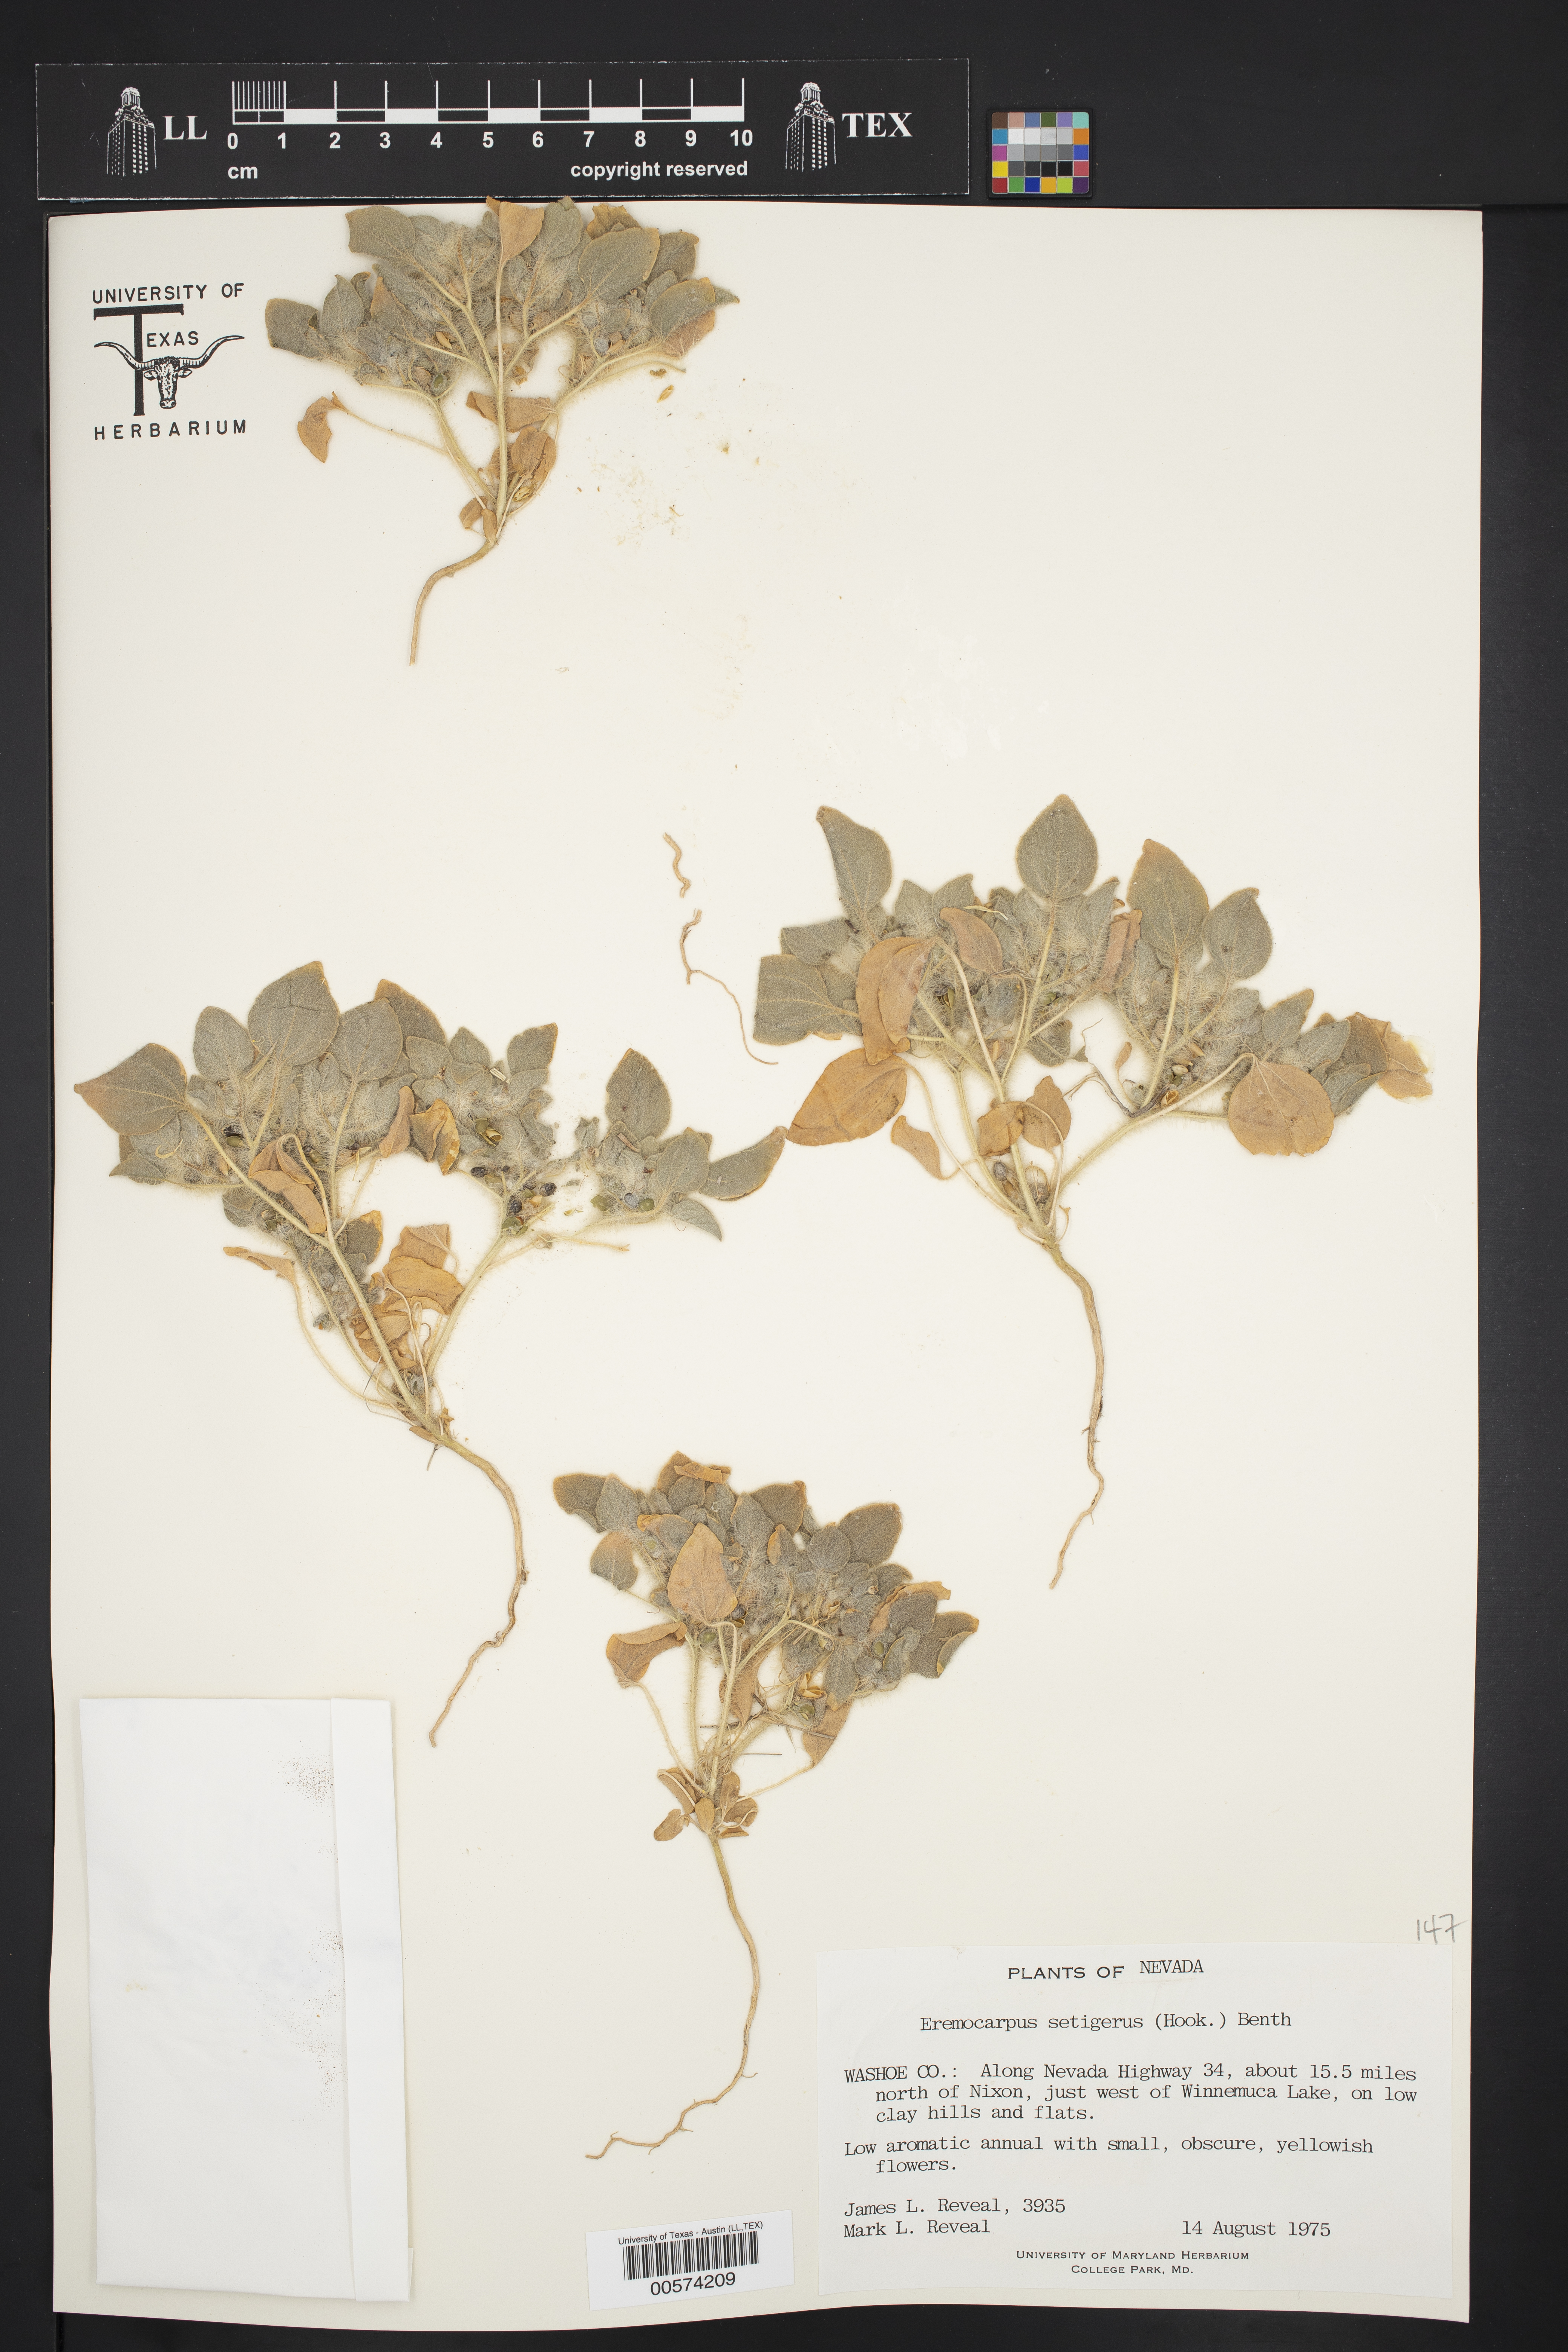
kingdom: Plantae
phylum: Tracheophyta
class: Magnoliopsida
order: Malpighiales
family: Euphorbiaceae
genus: Croton
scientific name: Croton setiger
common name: Dove weed
